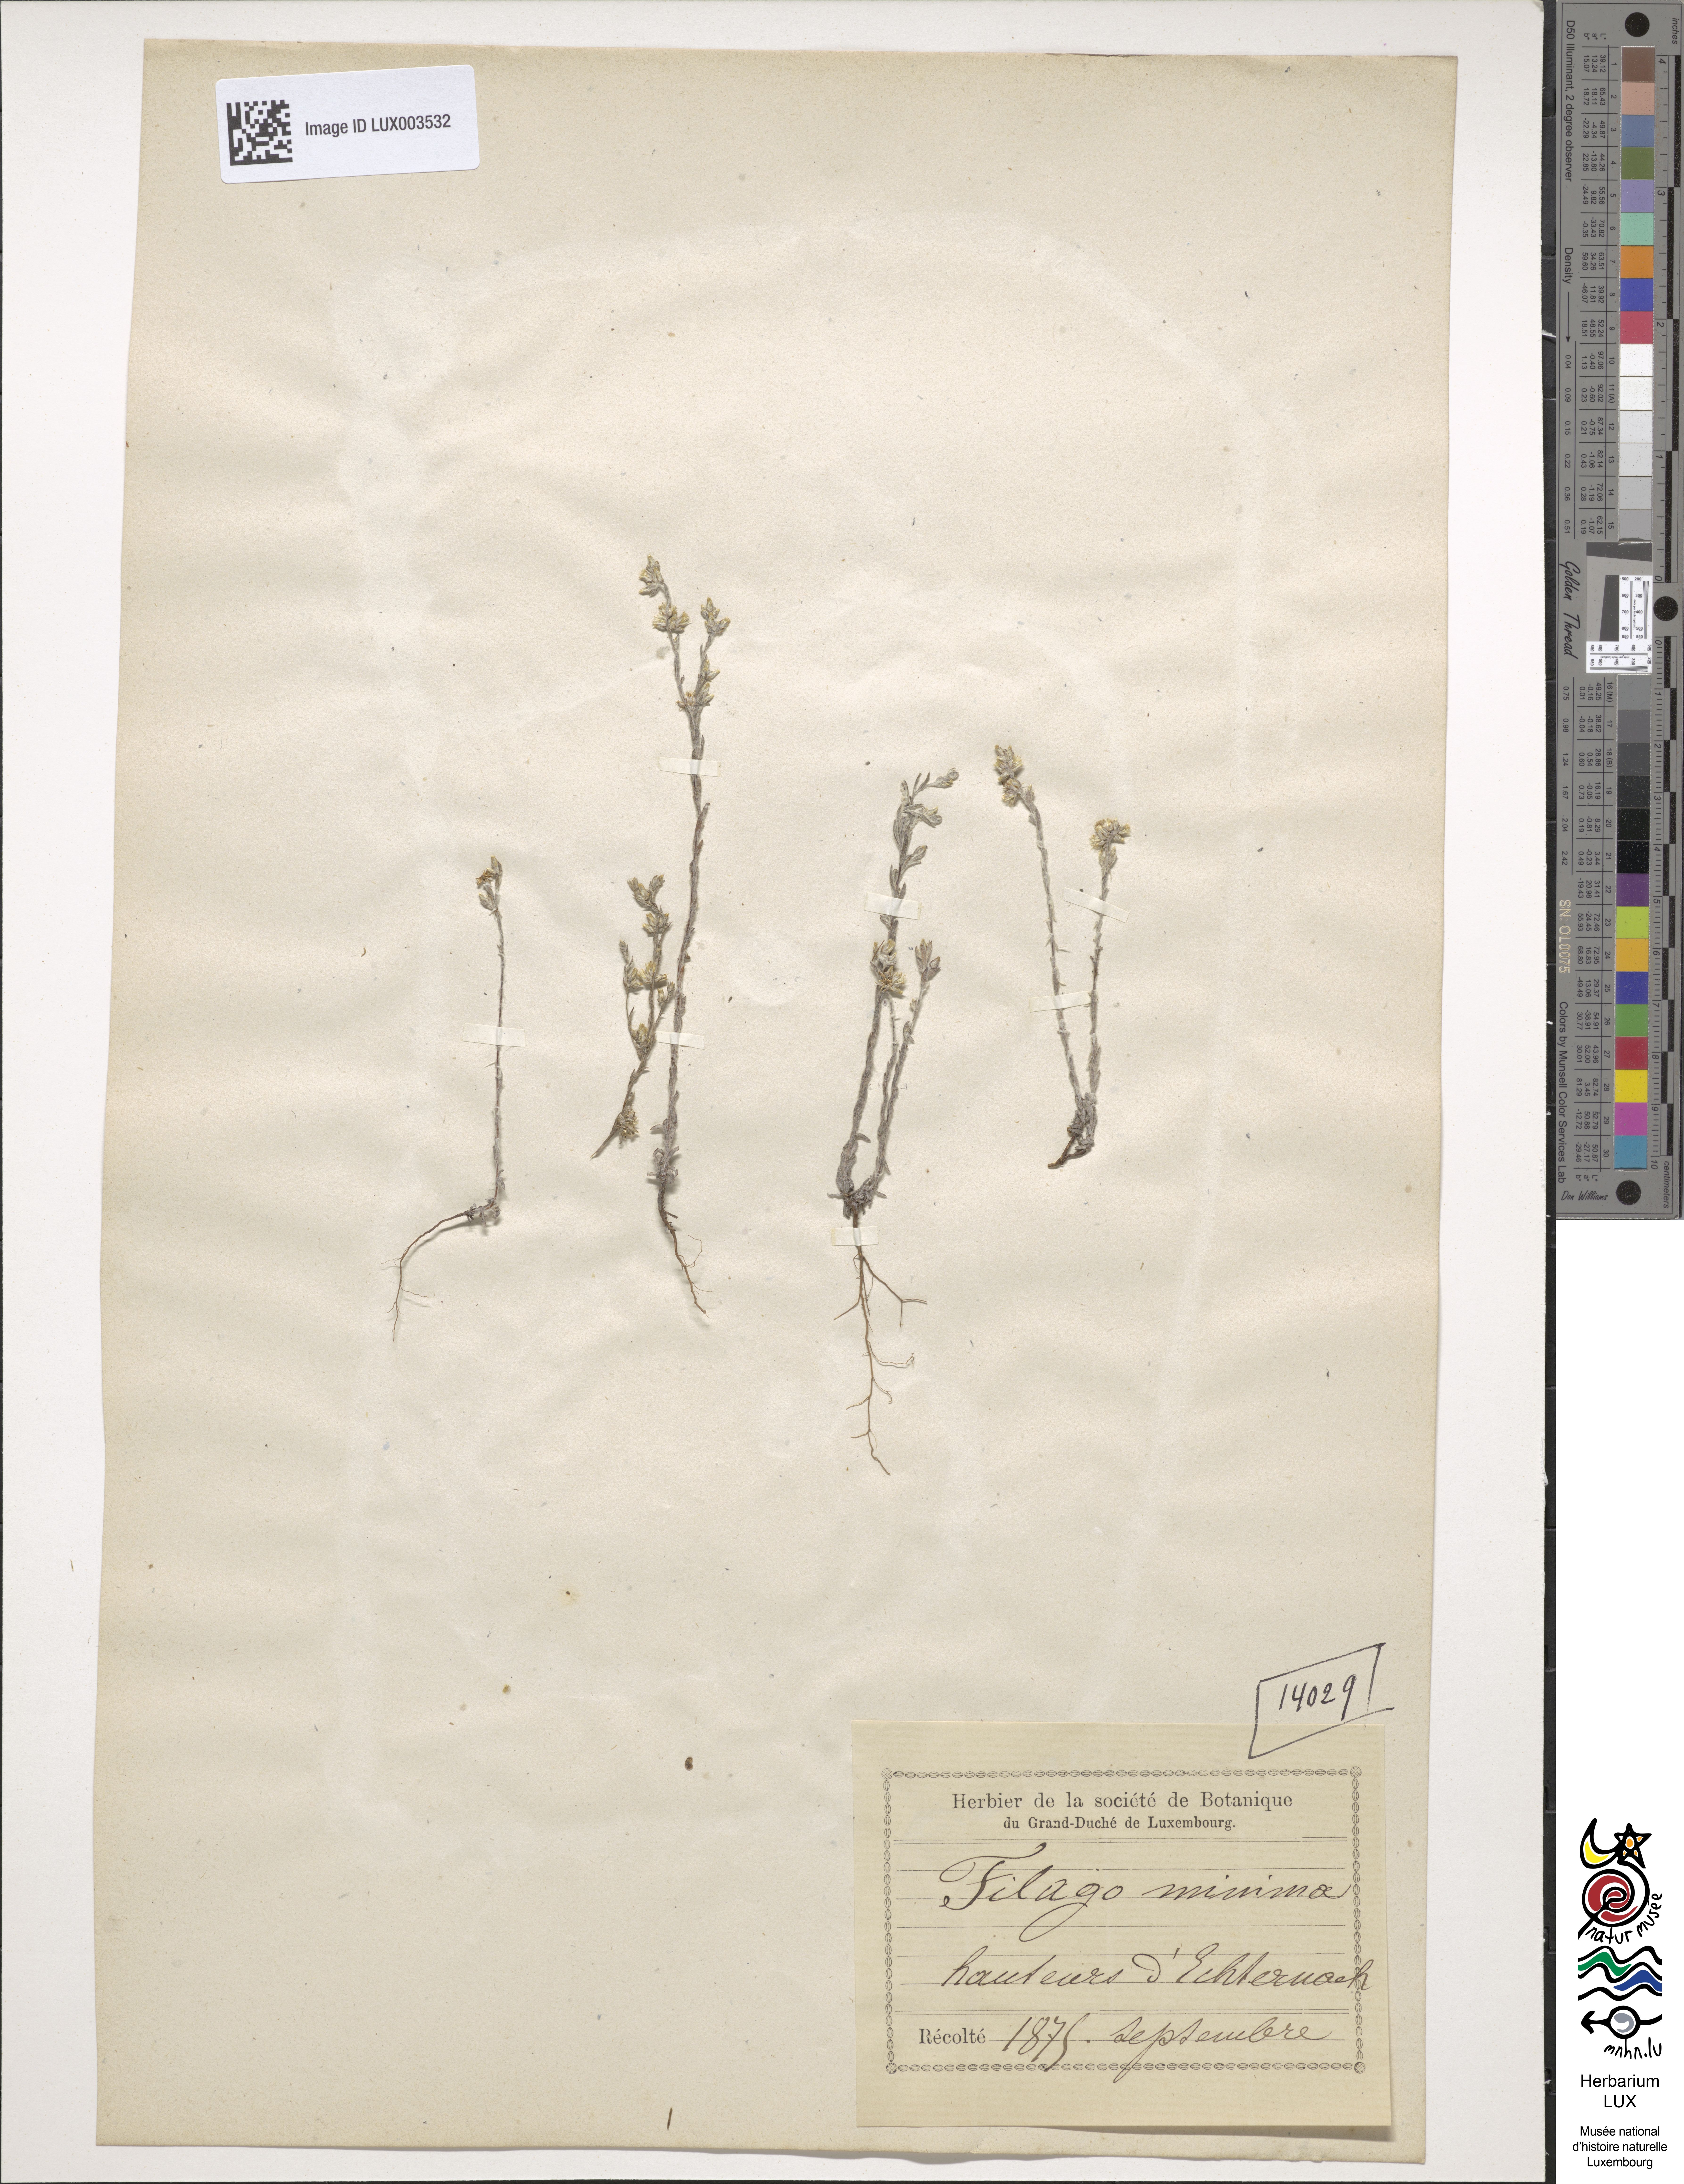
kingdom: Plantae
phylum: Tracheophyta
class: Magnoliopsida
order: Asterales
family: Asteraceae
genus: Logfia
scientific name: Logfia minima
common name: Little cottonrose
